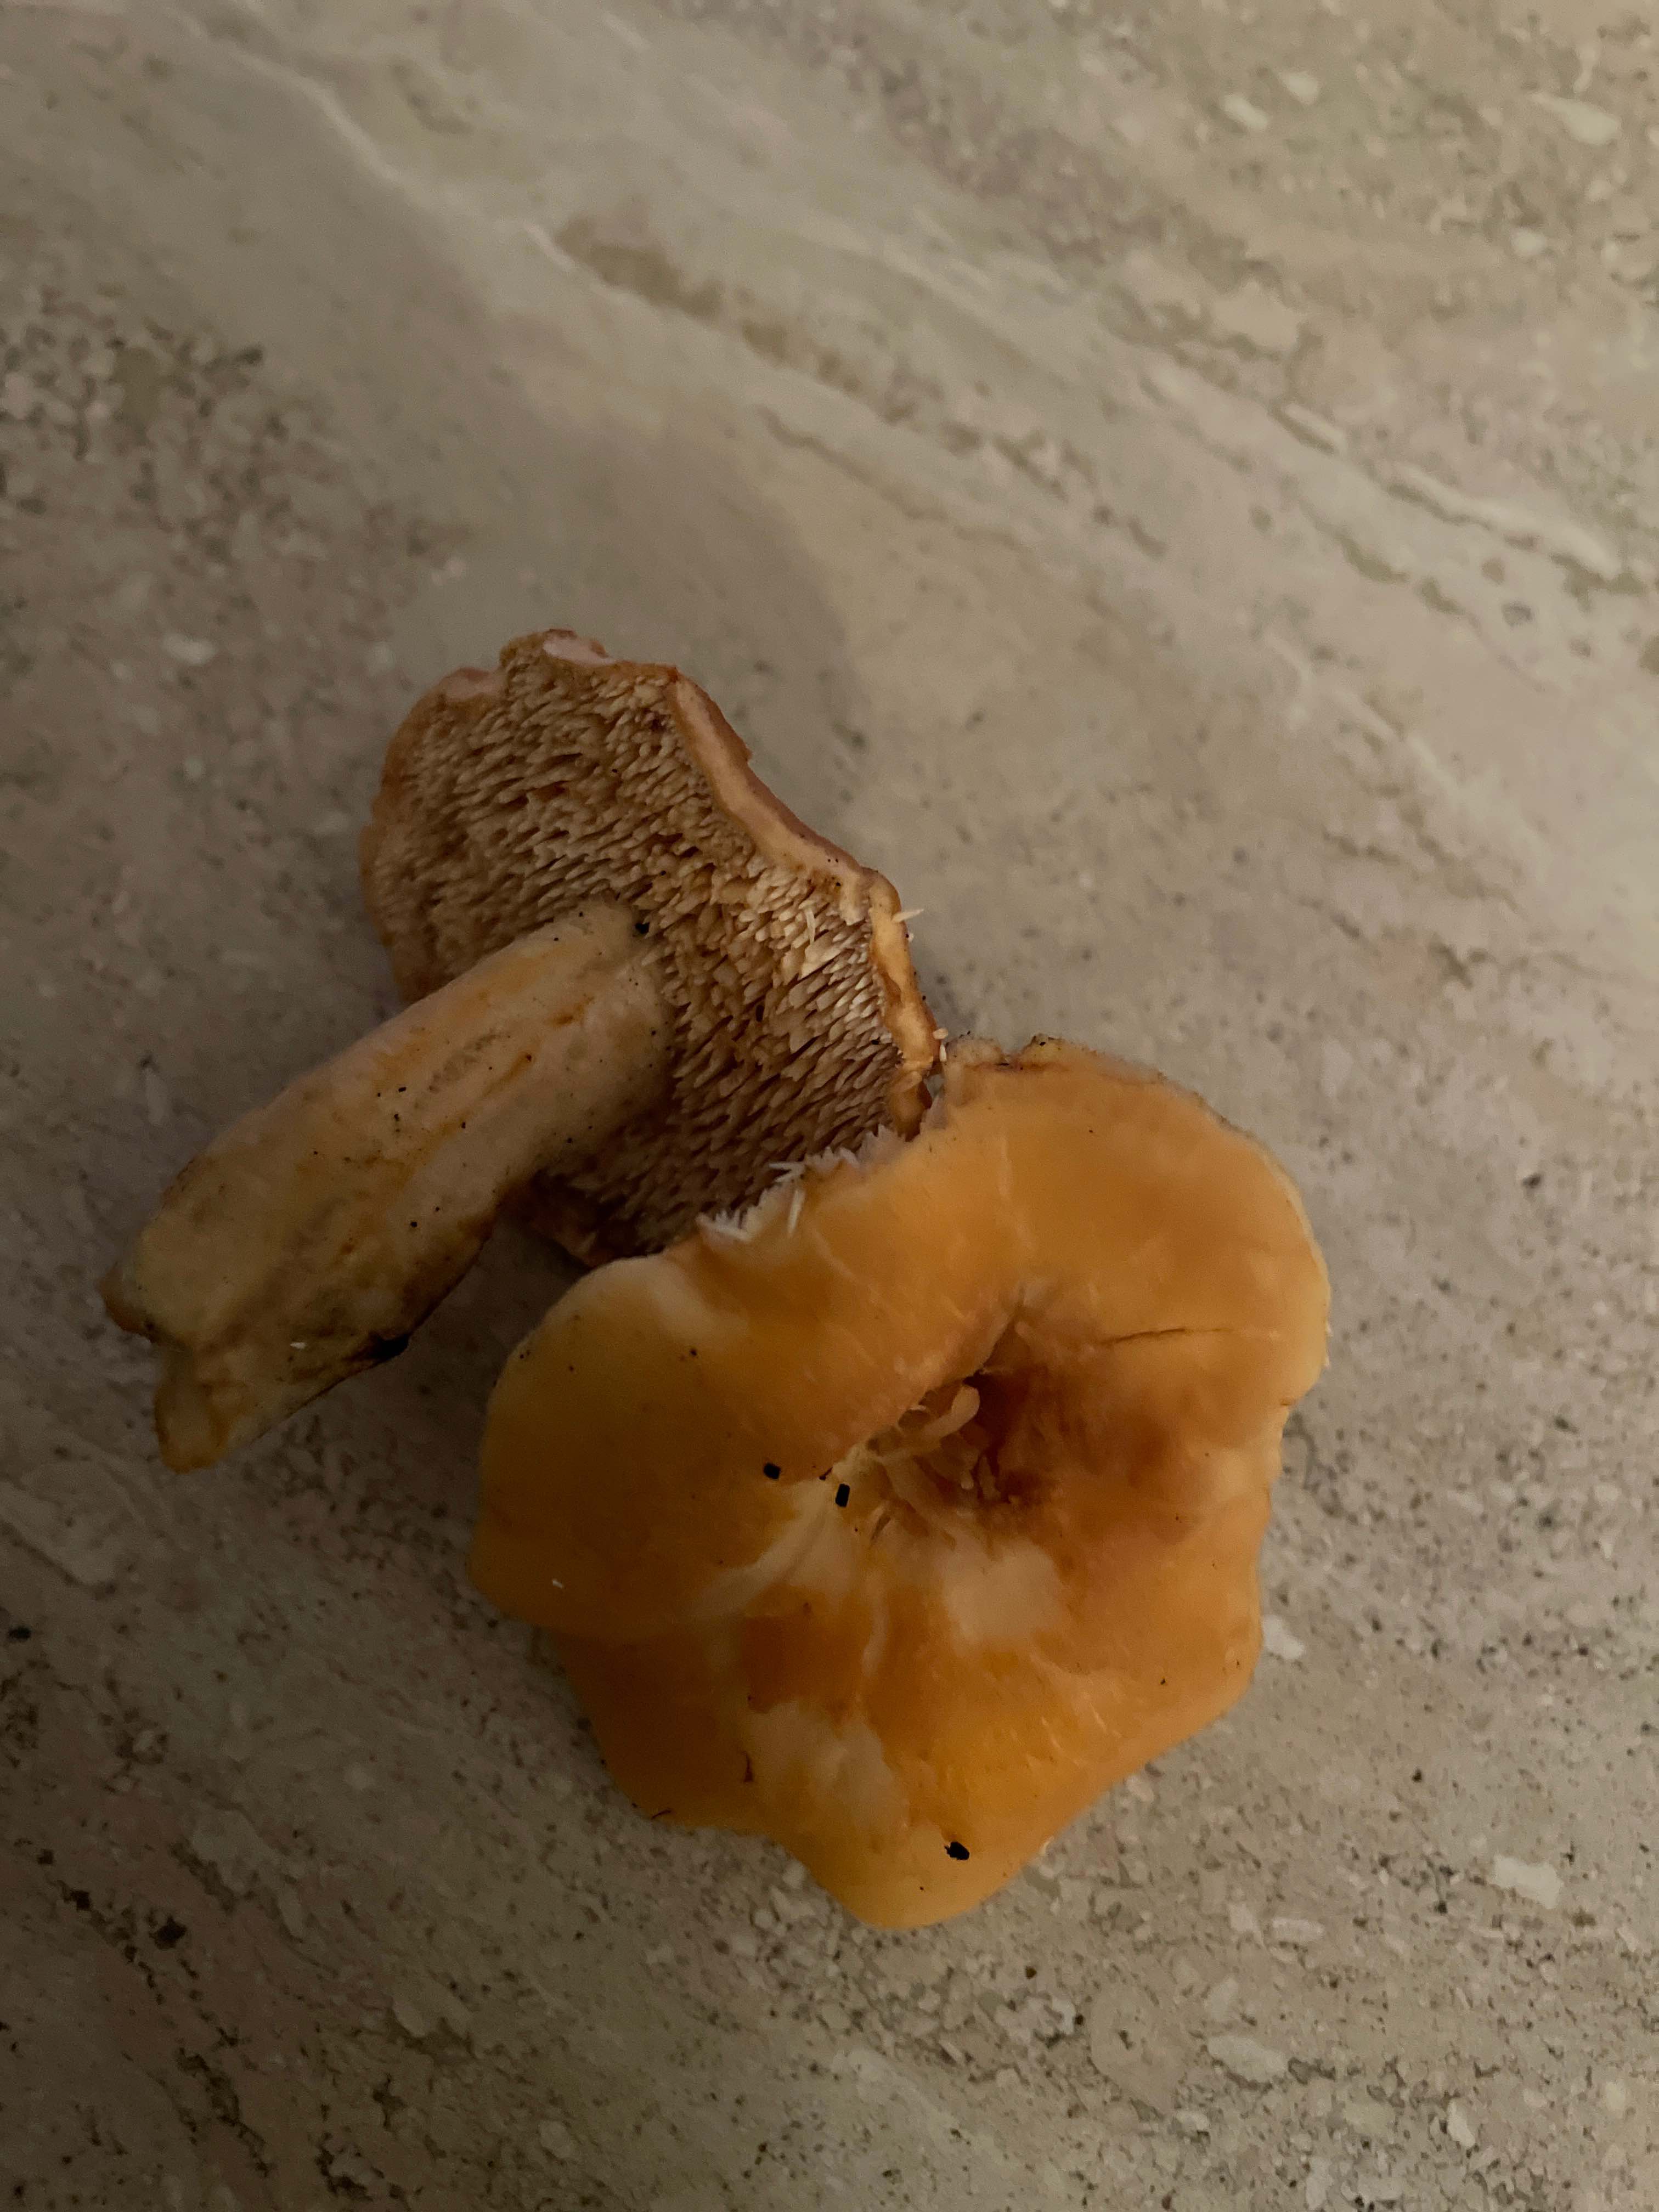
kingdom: Fungi
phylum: Basidiomycota
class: Agaricomycetes
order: Cantharellales
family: Hydnaceae
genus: Hydnum
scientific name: Hydnum umbilicatum
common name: navle-pigsvamp
